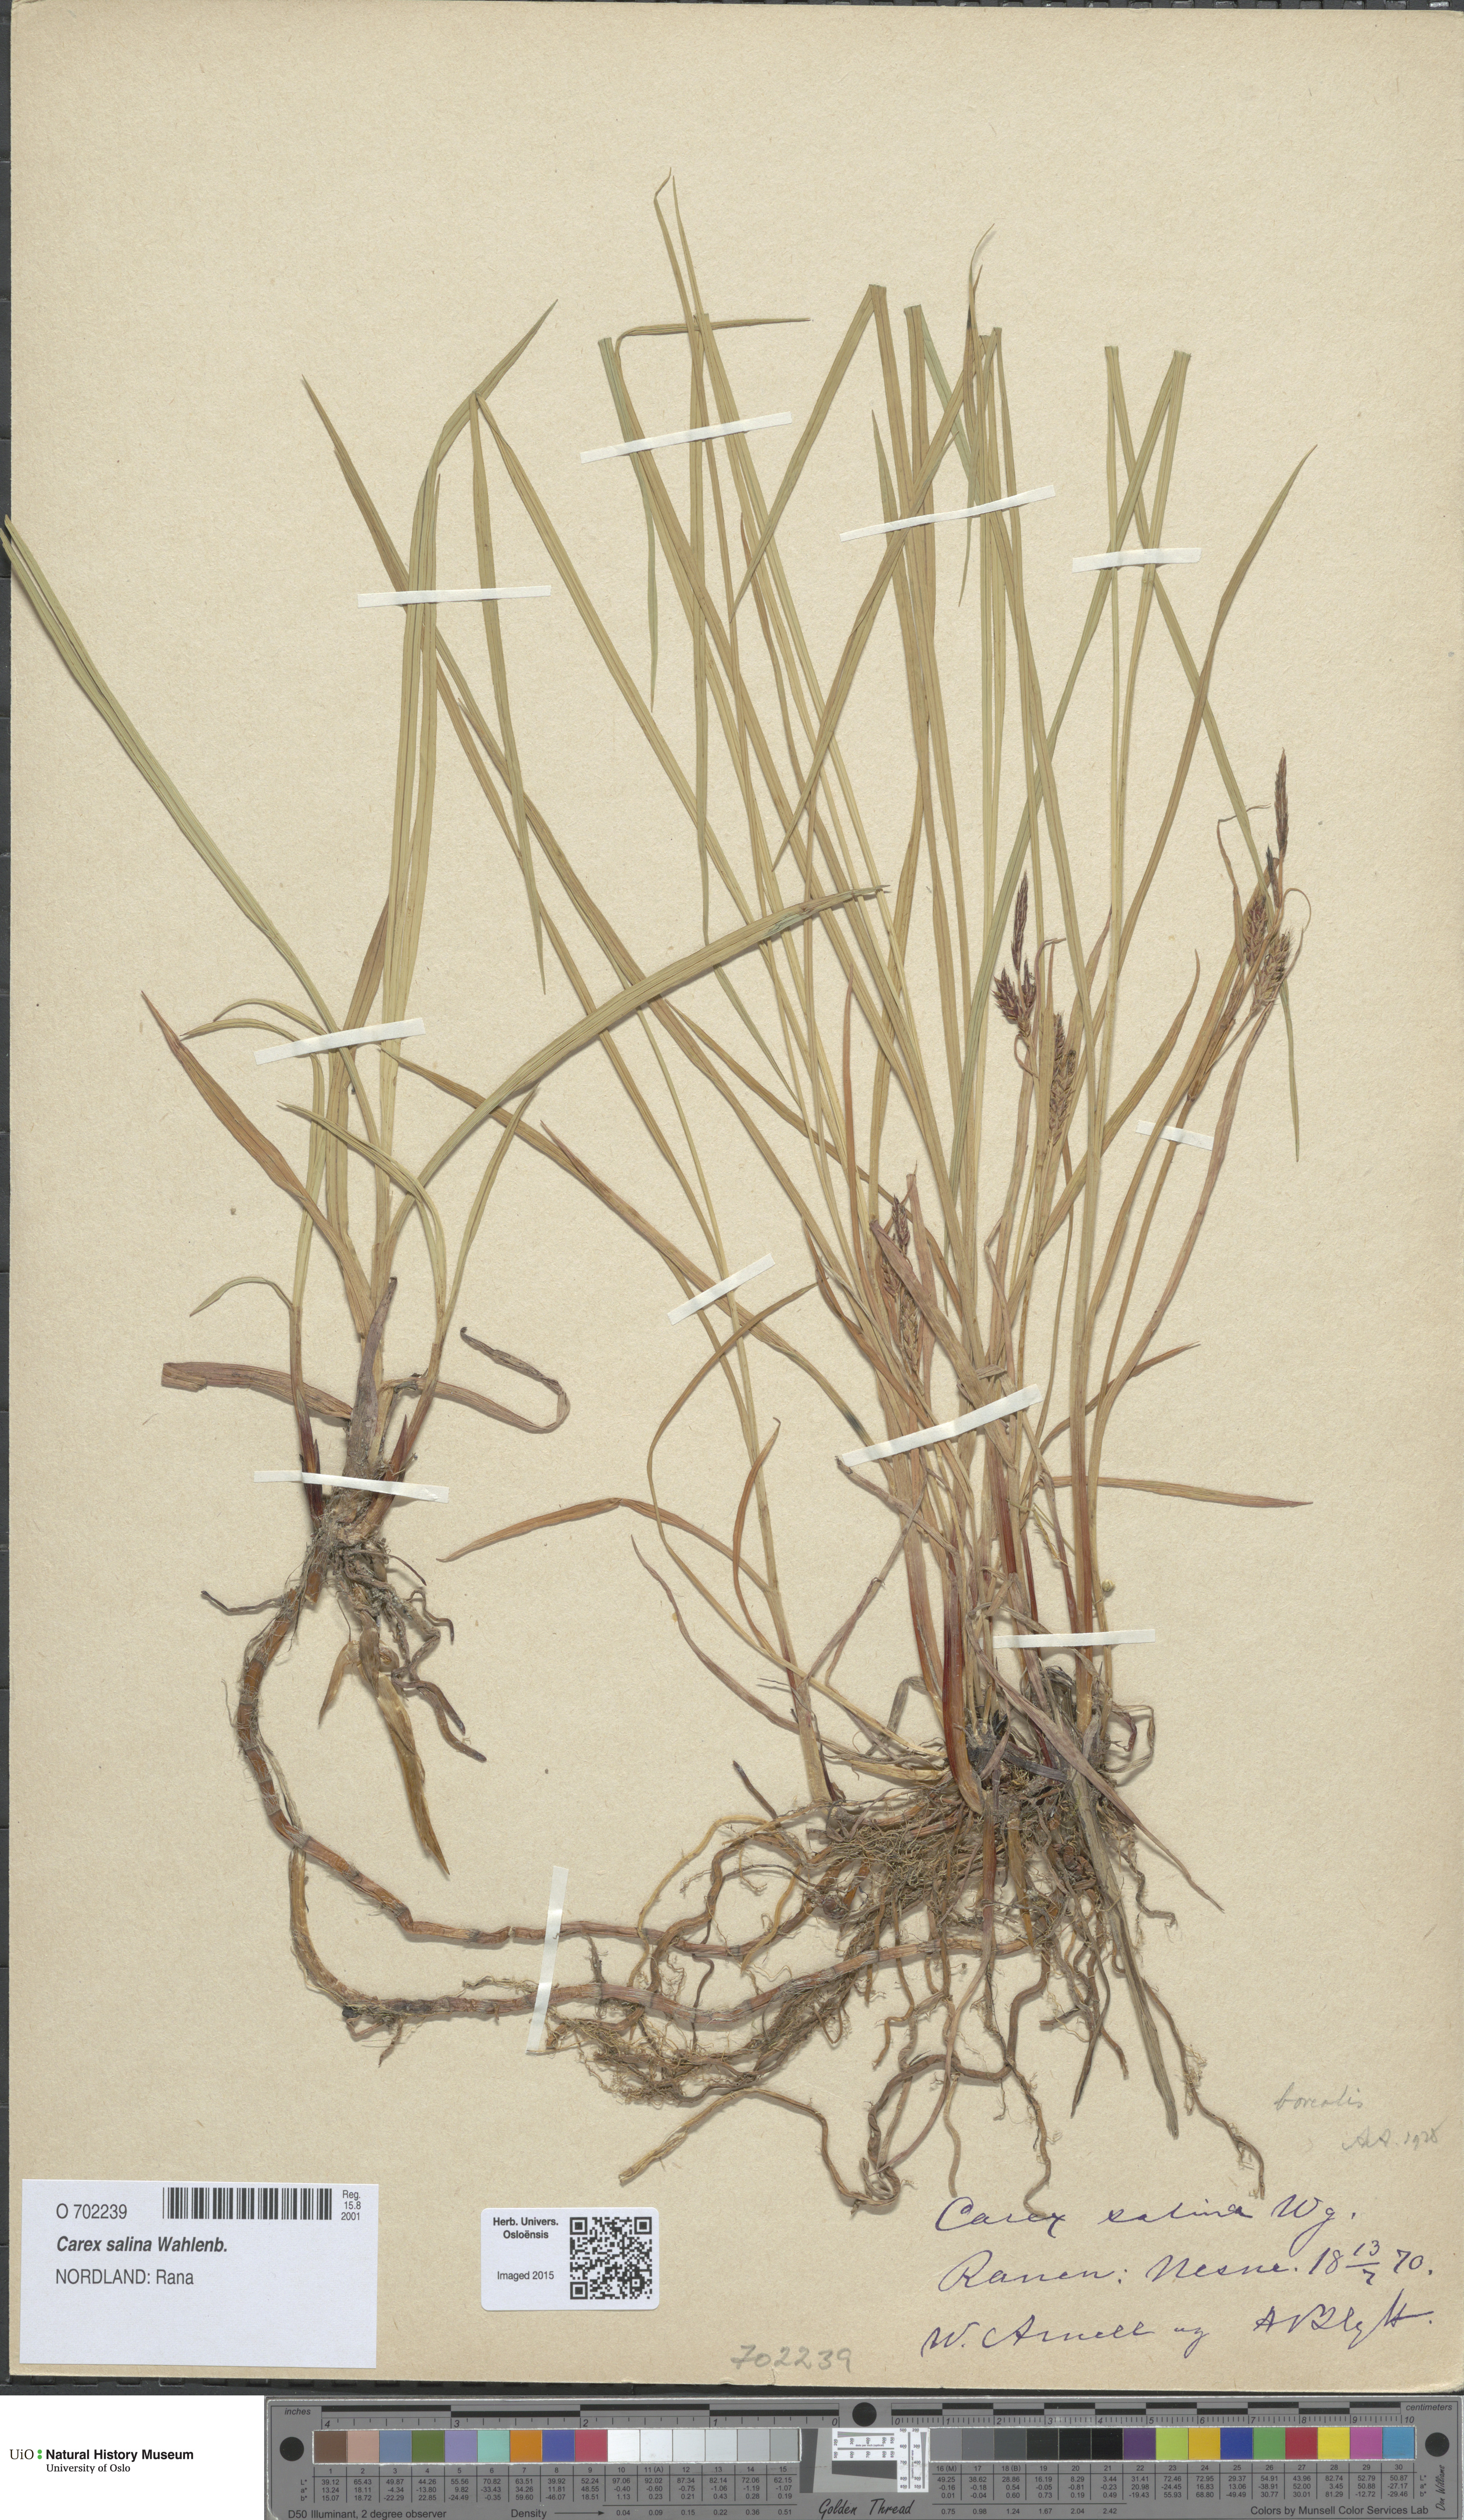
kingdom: Plantae
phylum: Tracheophyta
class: Liliopsida
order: Poales
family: Cyperaceae
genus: Carex
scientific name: Carex salina
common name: Saltmarsh sedge
